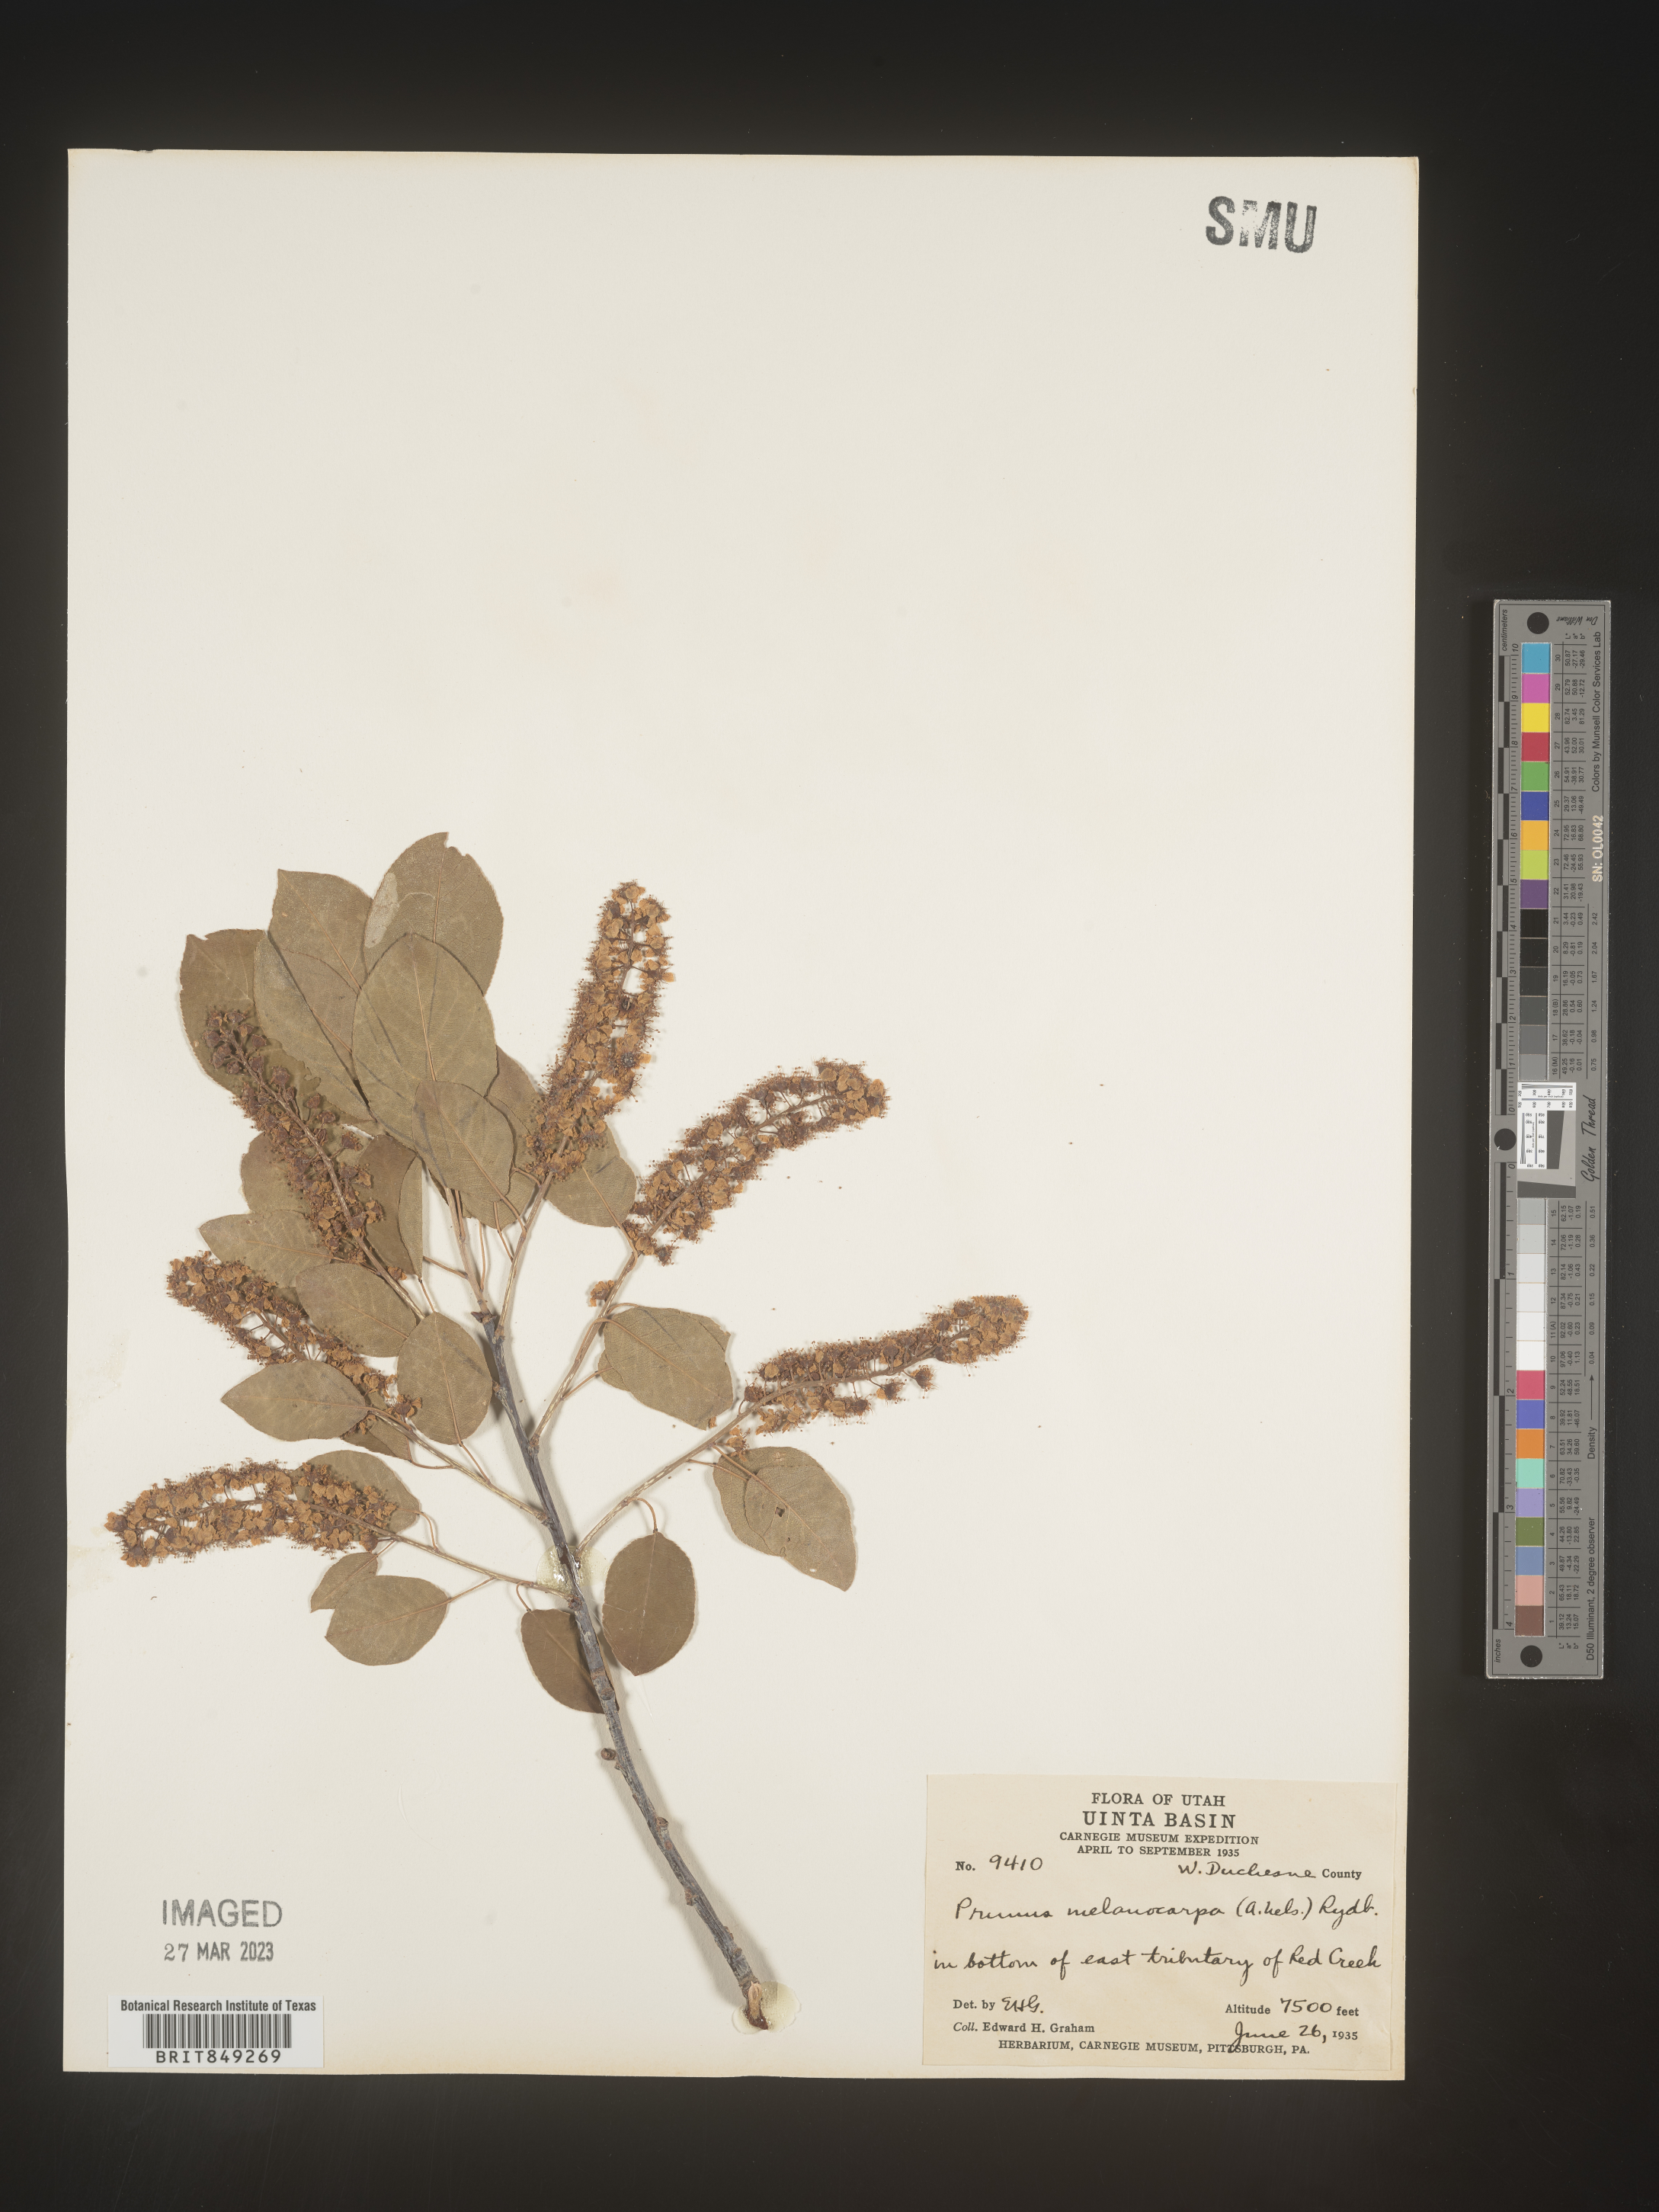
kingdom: Plantae
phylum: Tracheophyta
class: Magnoliopsida
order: Rosales
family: Rosaceae
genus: Prunus
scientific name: Prunus
